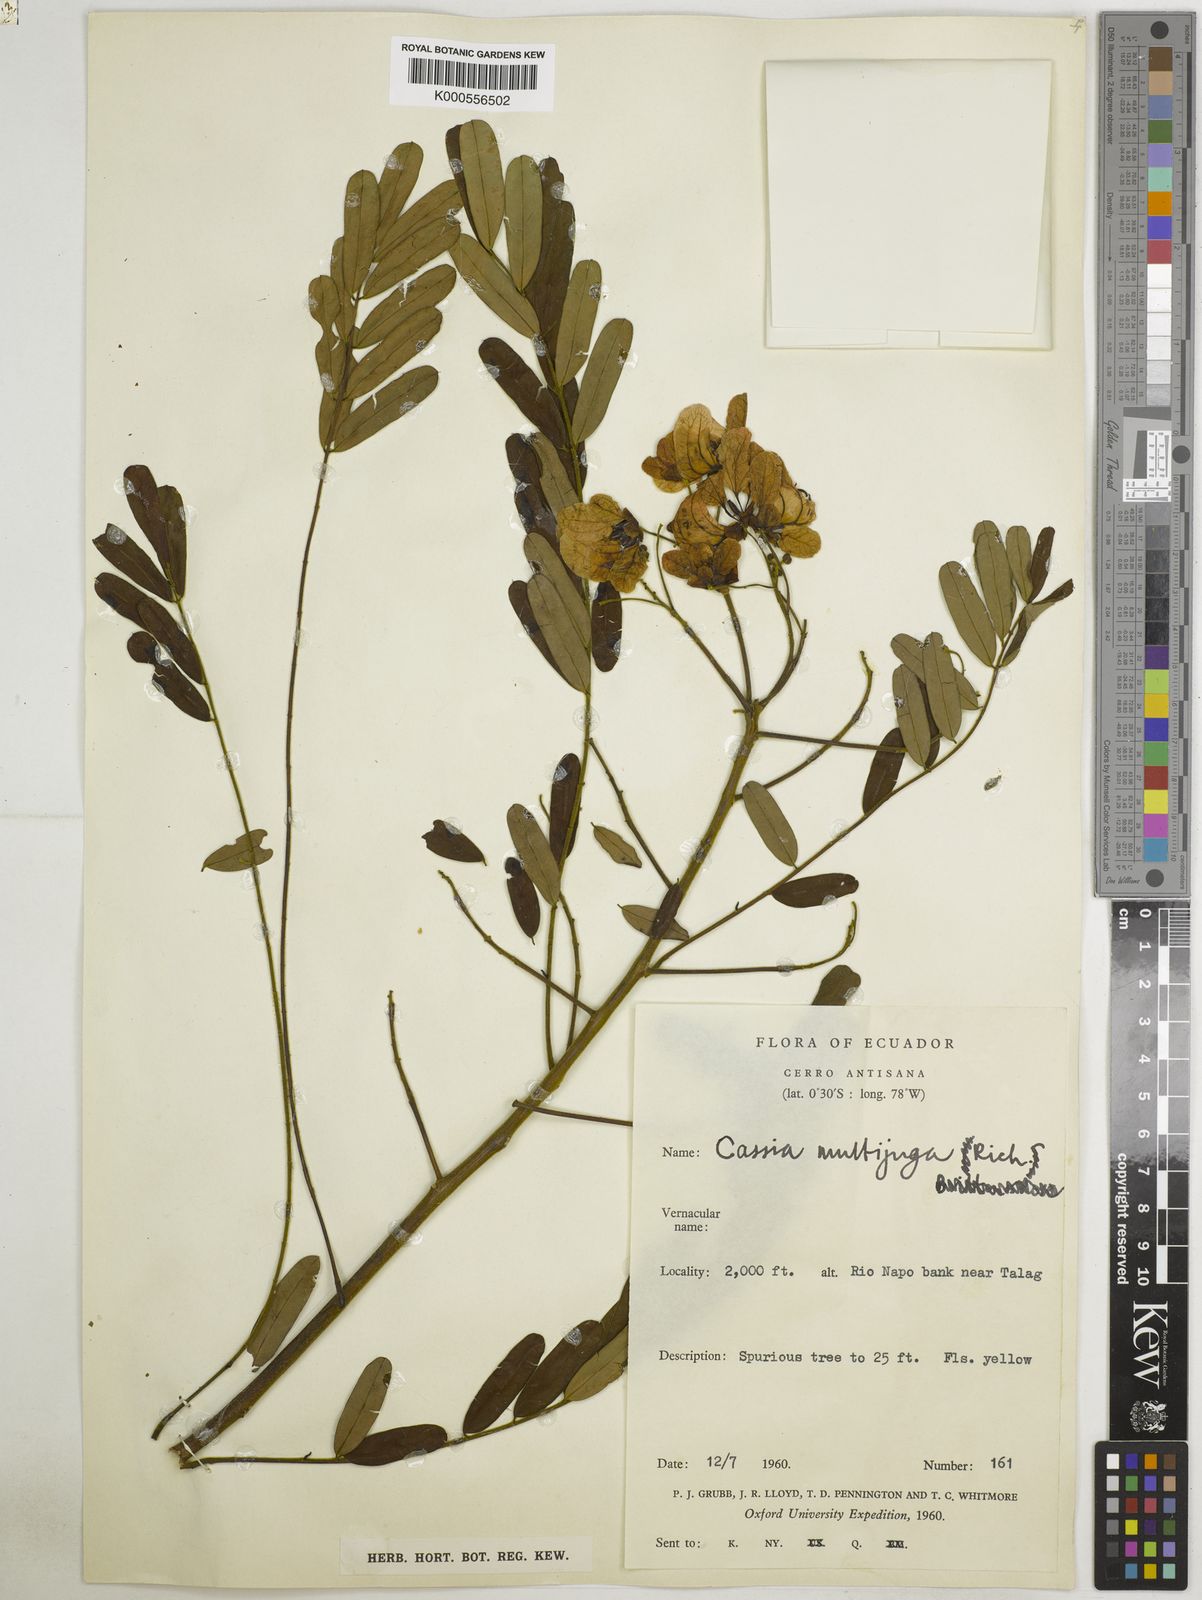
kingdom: Plantae
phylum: Tracheophyta
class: Magnoliopsida
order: Fabales
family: Fabaceae
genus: Senna
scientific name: Senna multijuga
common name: False sicklepod
